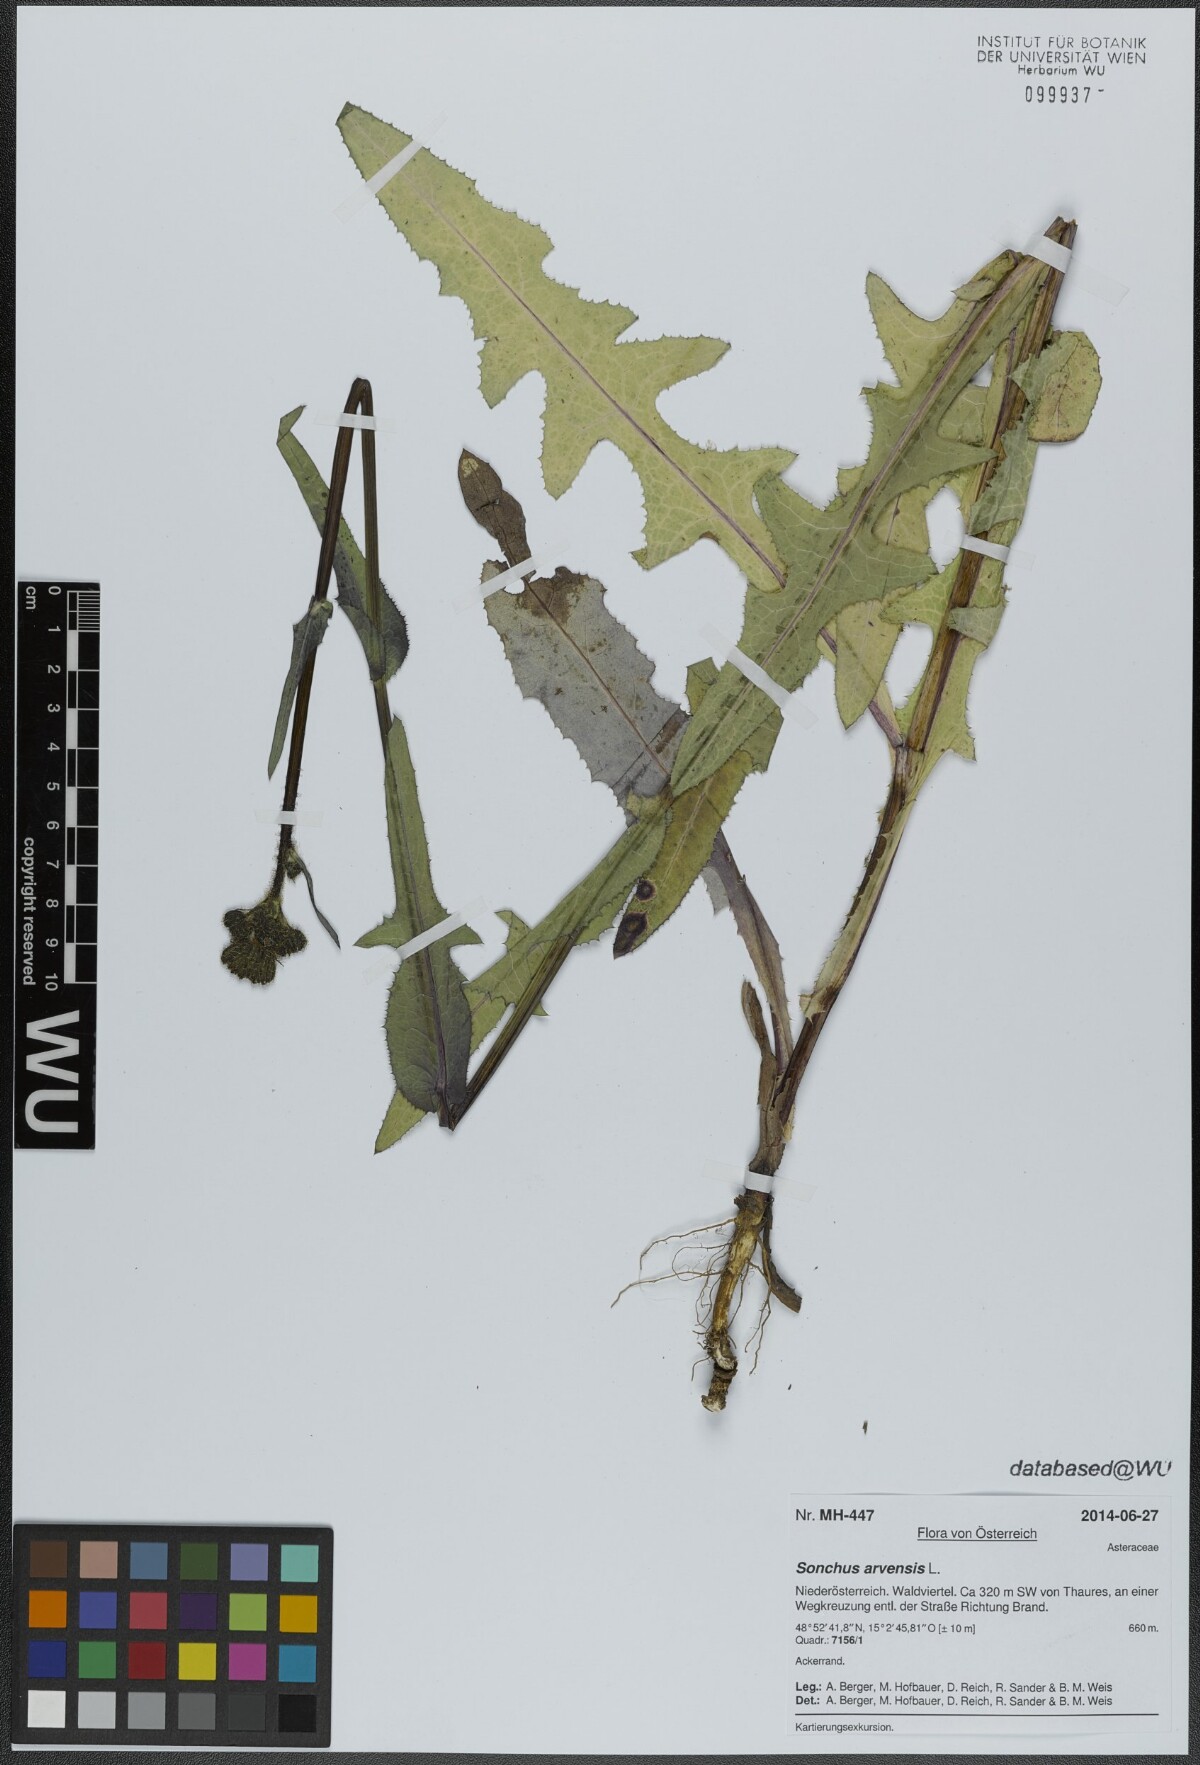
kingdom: Plantae
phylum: Tracheophyta
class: Magnoliopsida
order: Asterales
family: Asteraceae
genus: Sonchus
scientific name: Sonchus arvensis
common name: Perennial sow-thistle
